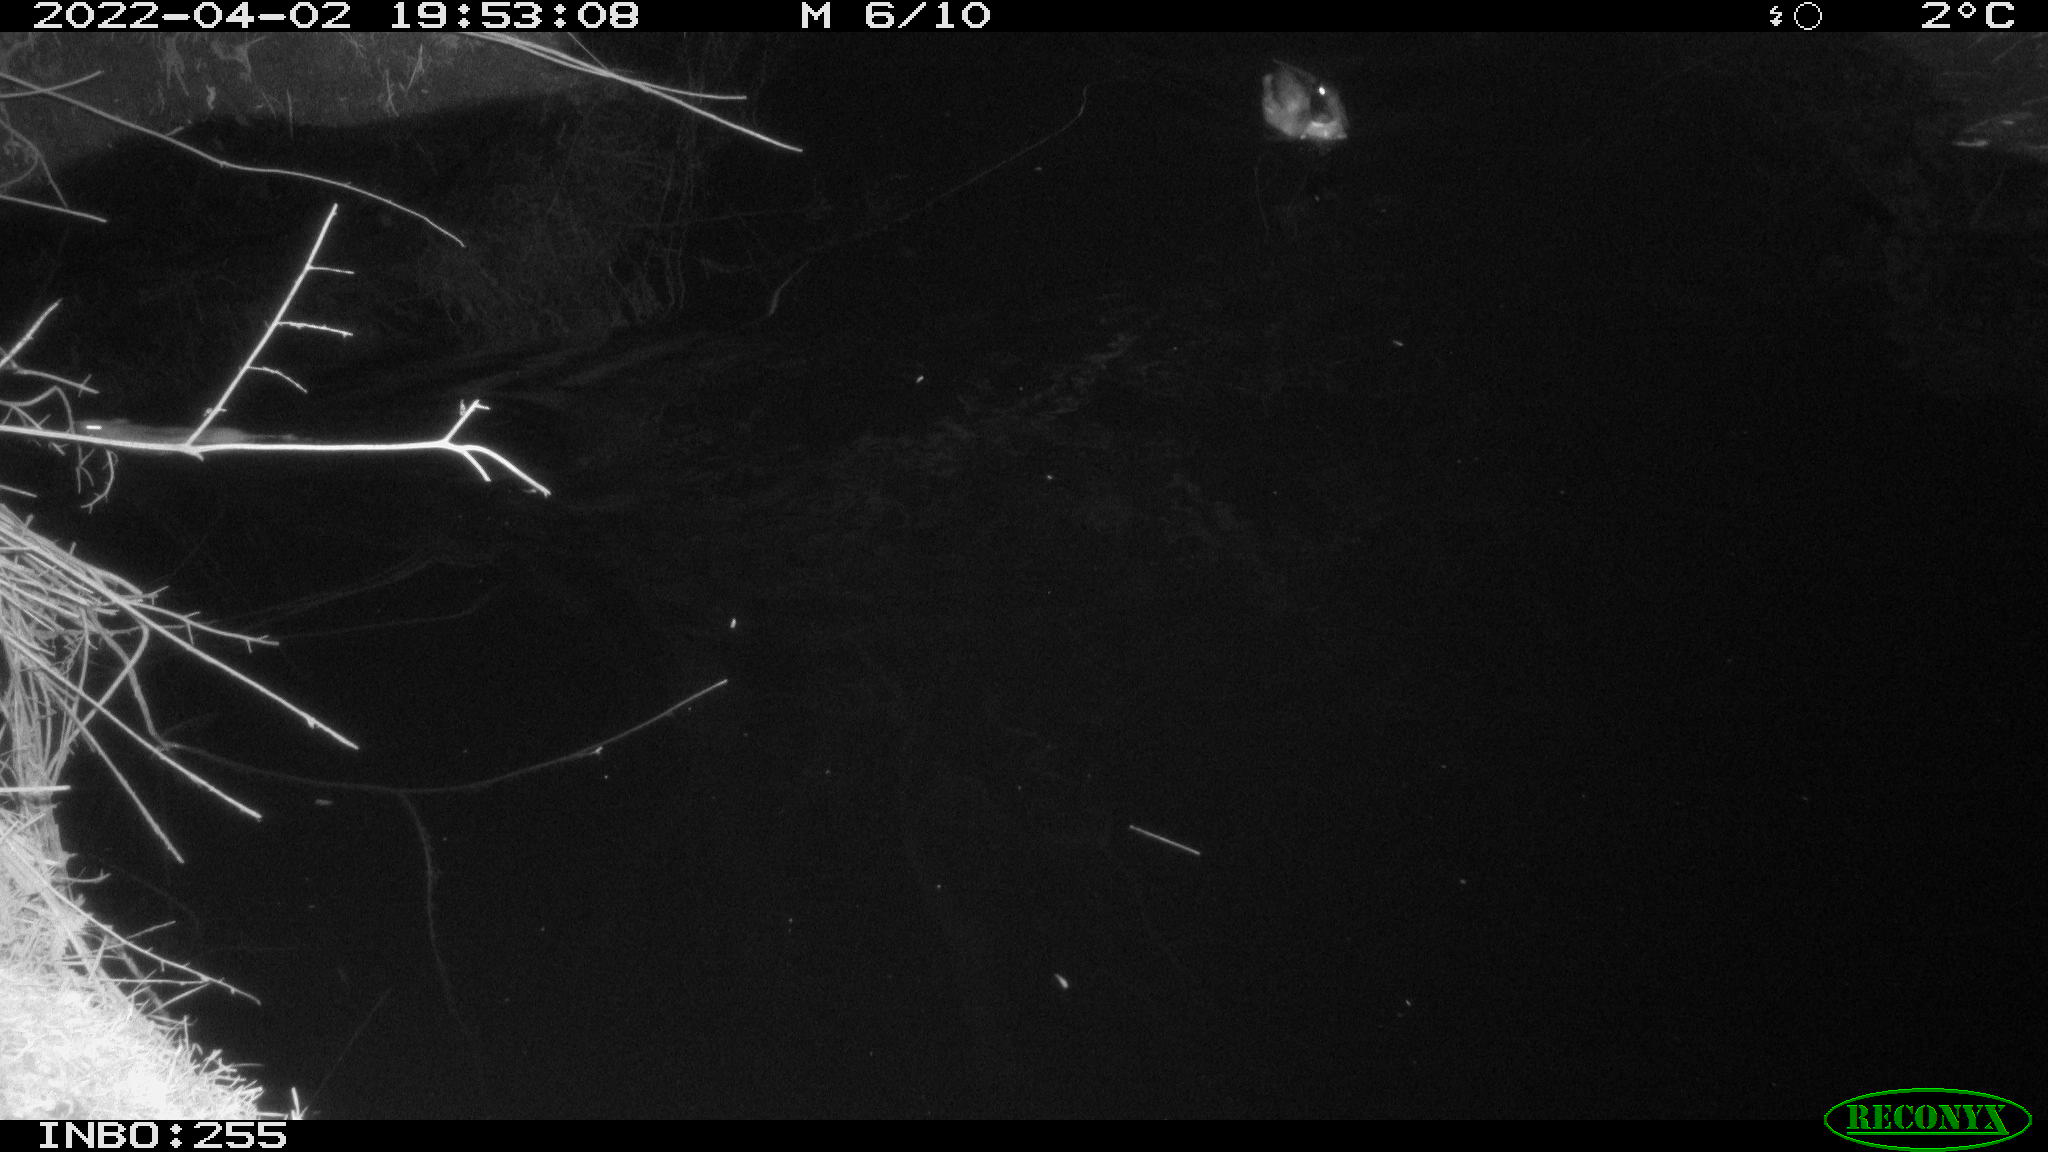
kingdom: Animalia
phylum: Chordata
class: Aves
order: Anseriformes
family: Anatidae
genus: Anas
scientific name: Anas platyrhynchos
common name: Mallard
